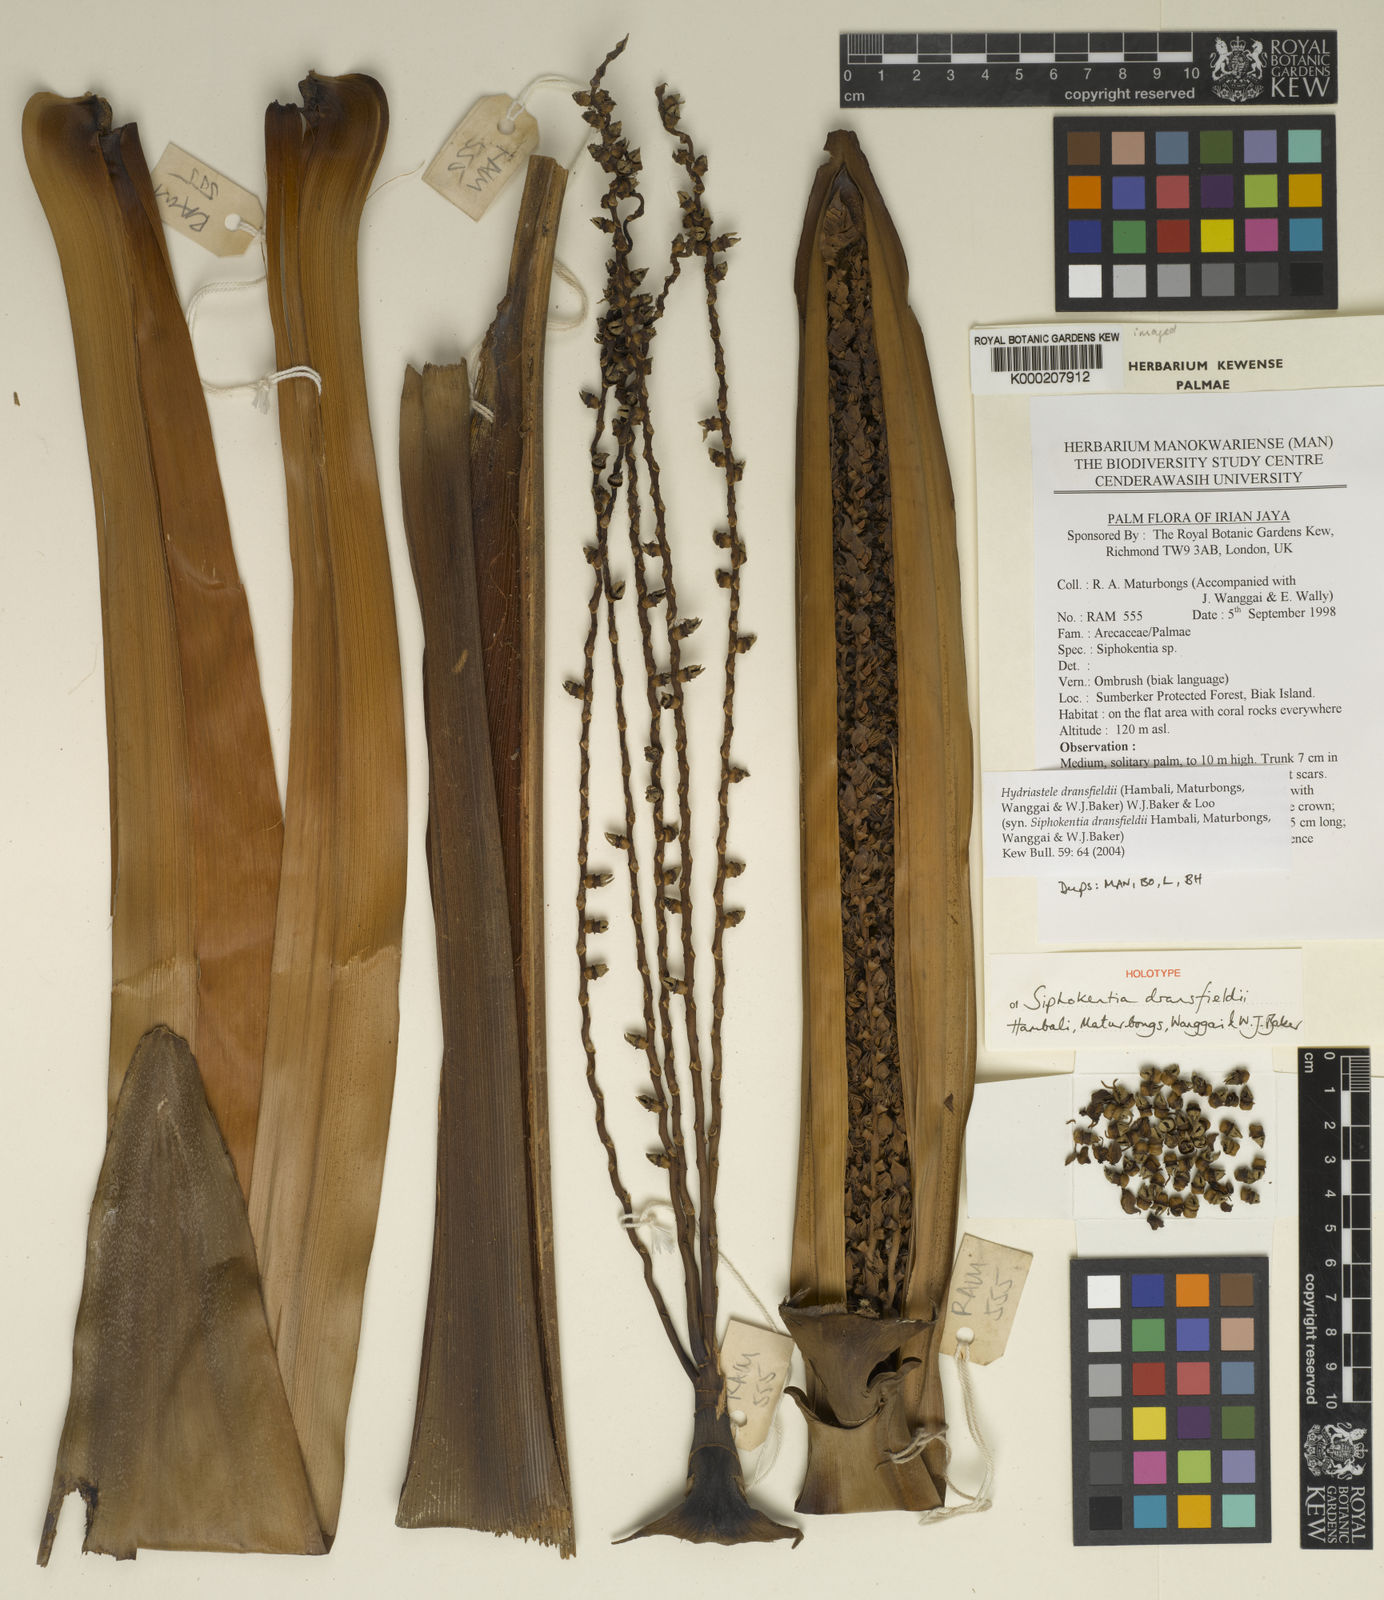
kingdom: Plantae
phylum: Tracheophyta
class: Liliopsida
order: Arecales
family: Arecaceae
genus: Hydriastele
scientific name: Hydriastele dransfieldii
